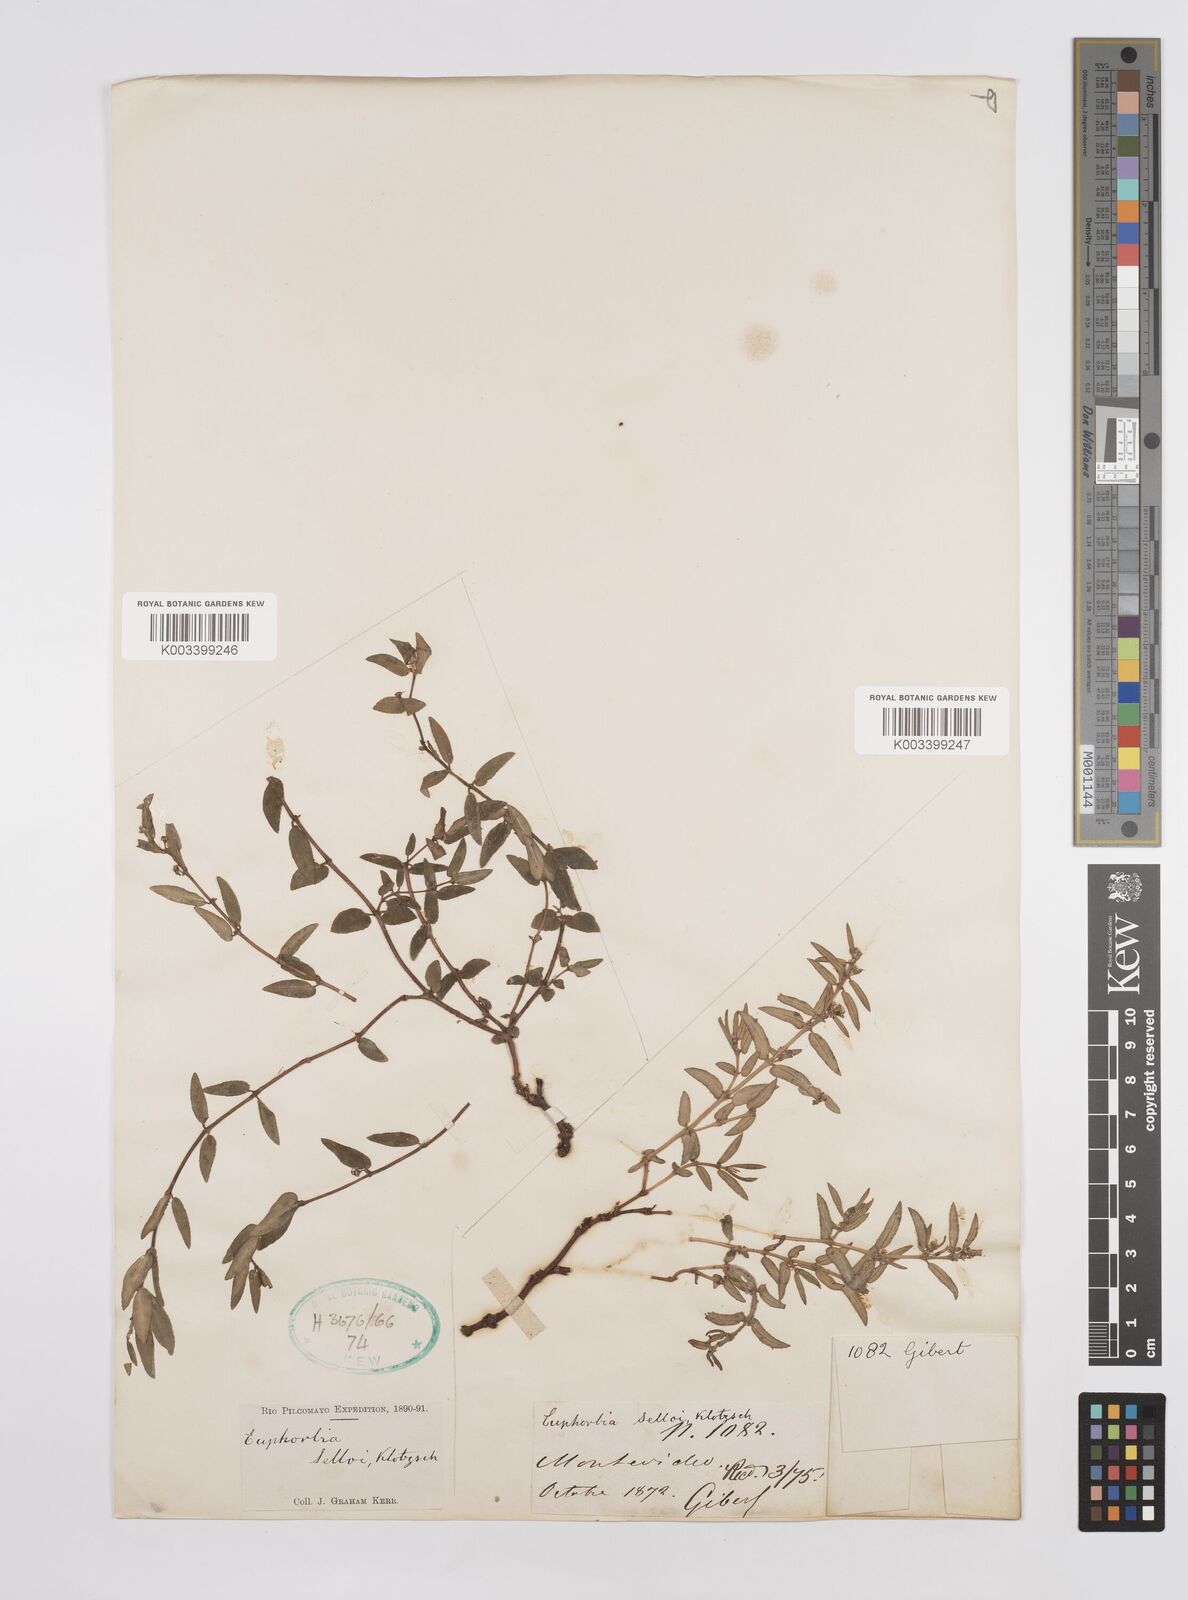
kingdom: Plantae
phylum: Tracheophyta
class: Magnoliopsida
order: Malpighiales
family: Euphorbiaceae
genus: Euphorbia
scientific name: Euphorbia selloi
